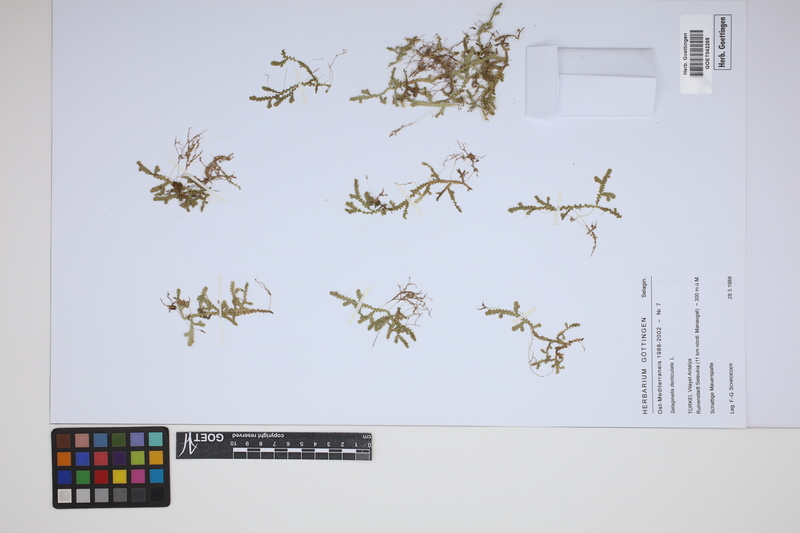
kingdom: Plantae
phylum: Tracheophyta
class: Lycopodiopsida
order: Selaginellales
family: Selaginellaceae
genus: Selaginella
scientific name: Selaginella denticulata
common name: Toothed-leaved clubmoss
